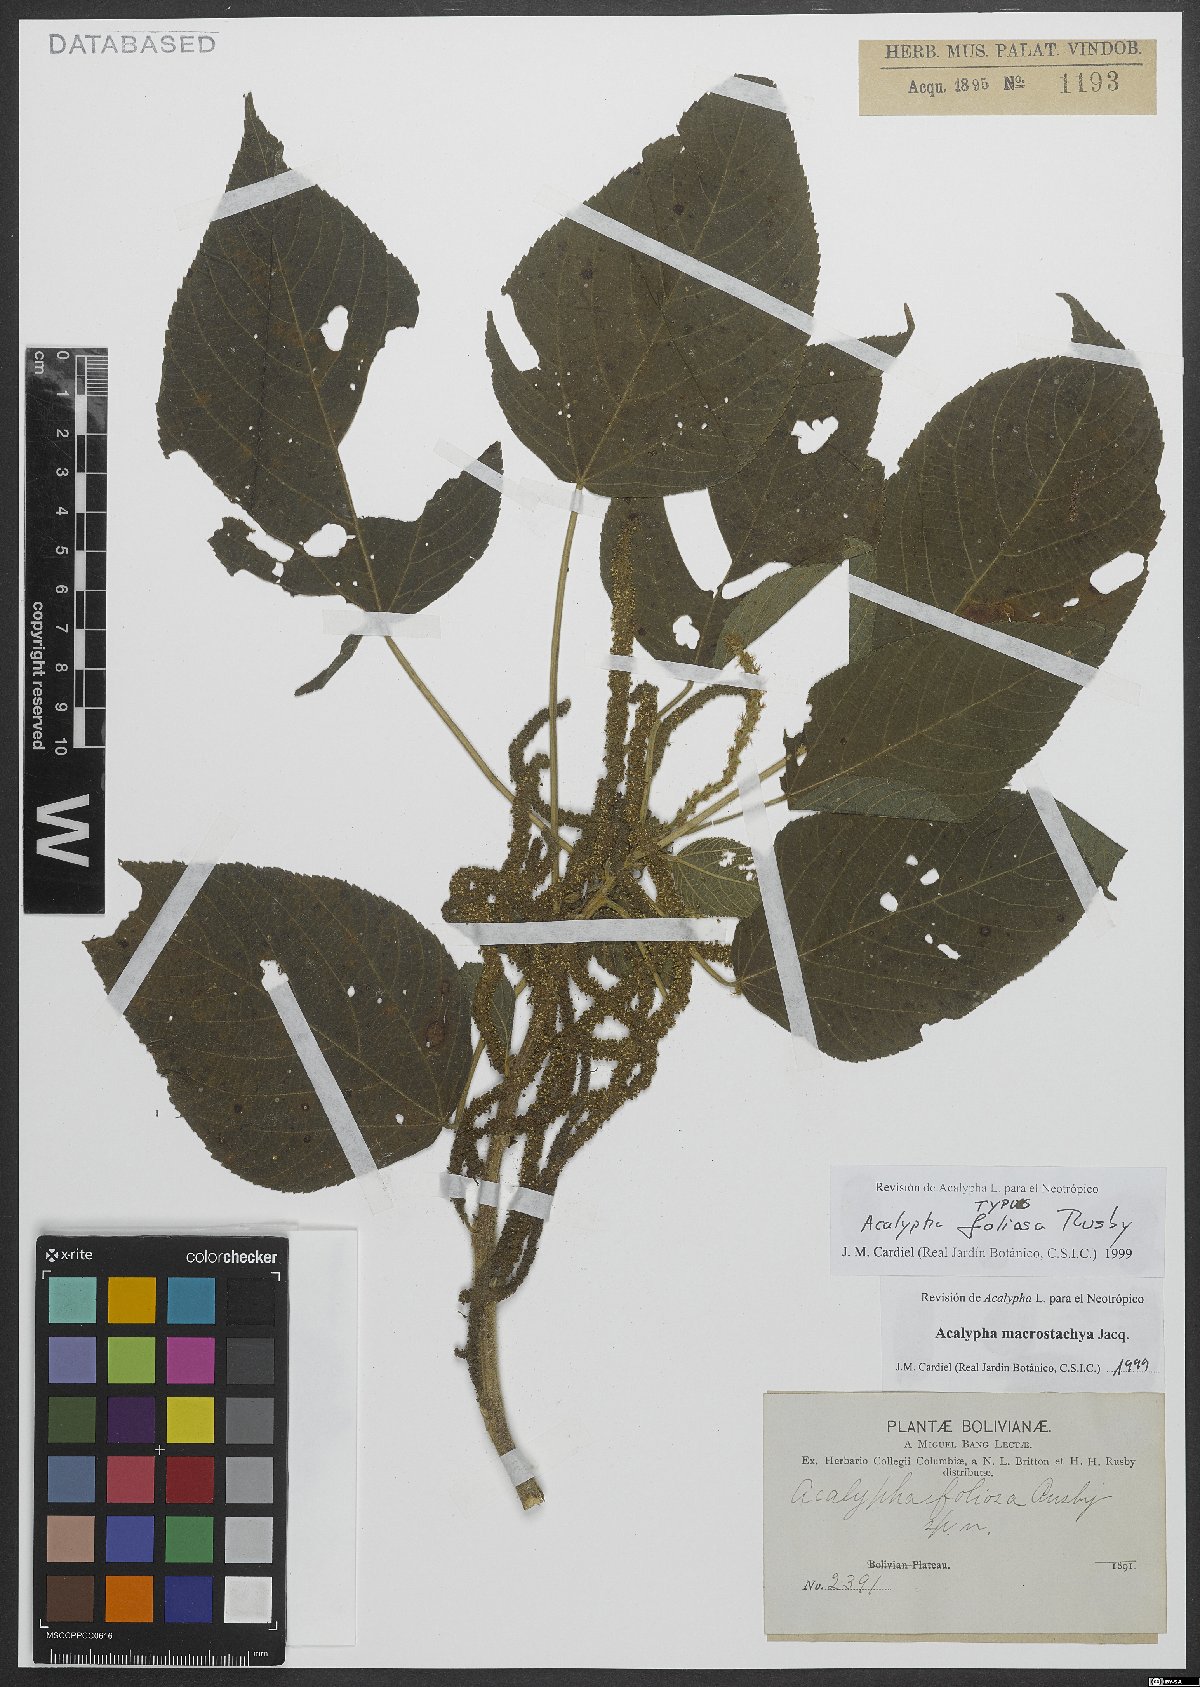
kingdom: Plantae
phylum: Tracheophyta
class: Magnoliopsida
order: Malpighiales
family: Euphorbiaceae
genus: Acalypha
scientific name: Acalypha macrostachya
